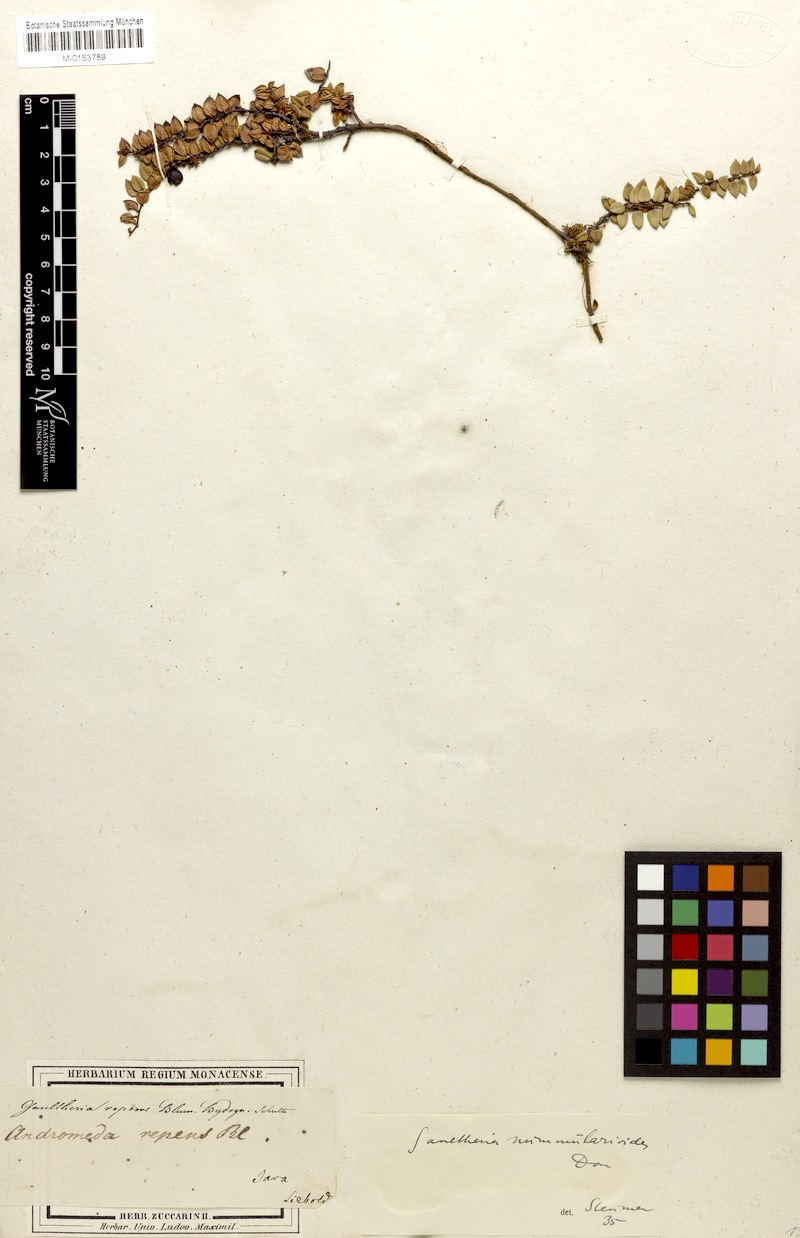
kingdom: Plantae
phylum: Tracheophyta
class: Magnoliopsida
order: Ericales
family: Ericaceae
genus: Gaultheria
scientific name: Gaultheria nummularioides
